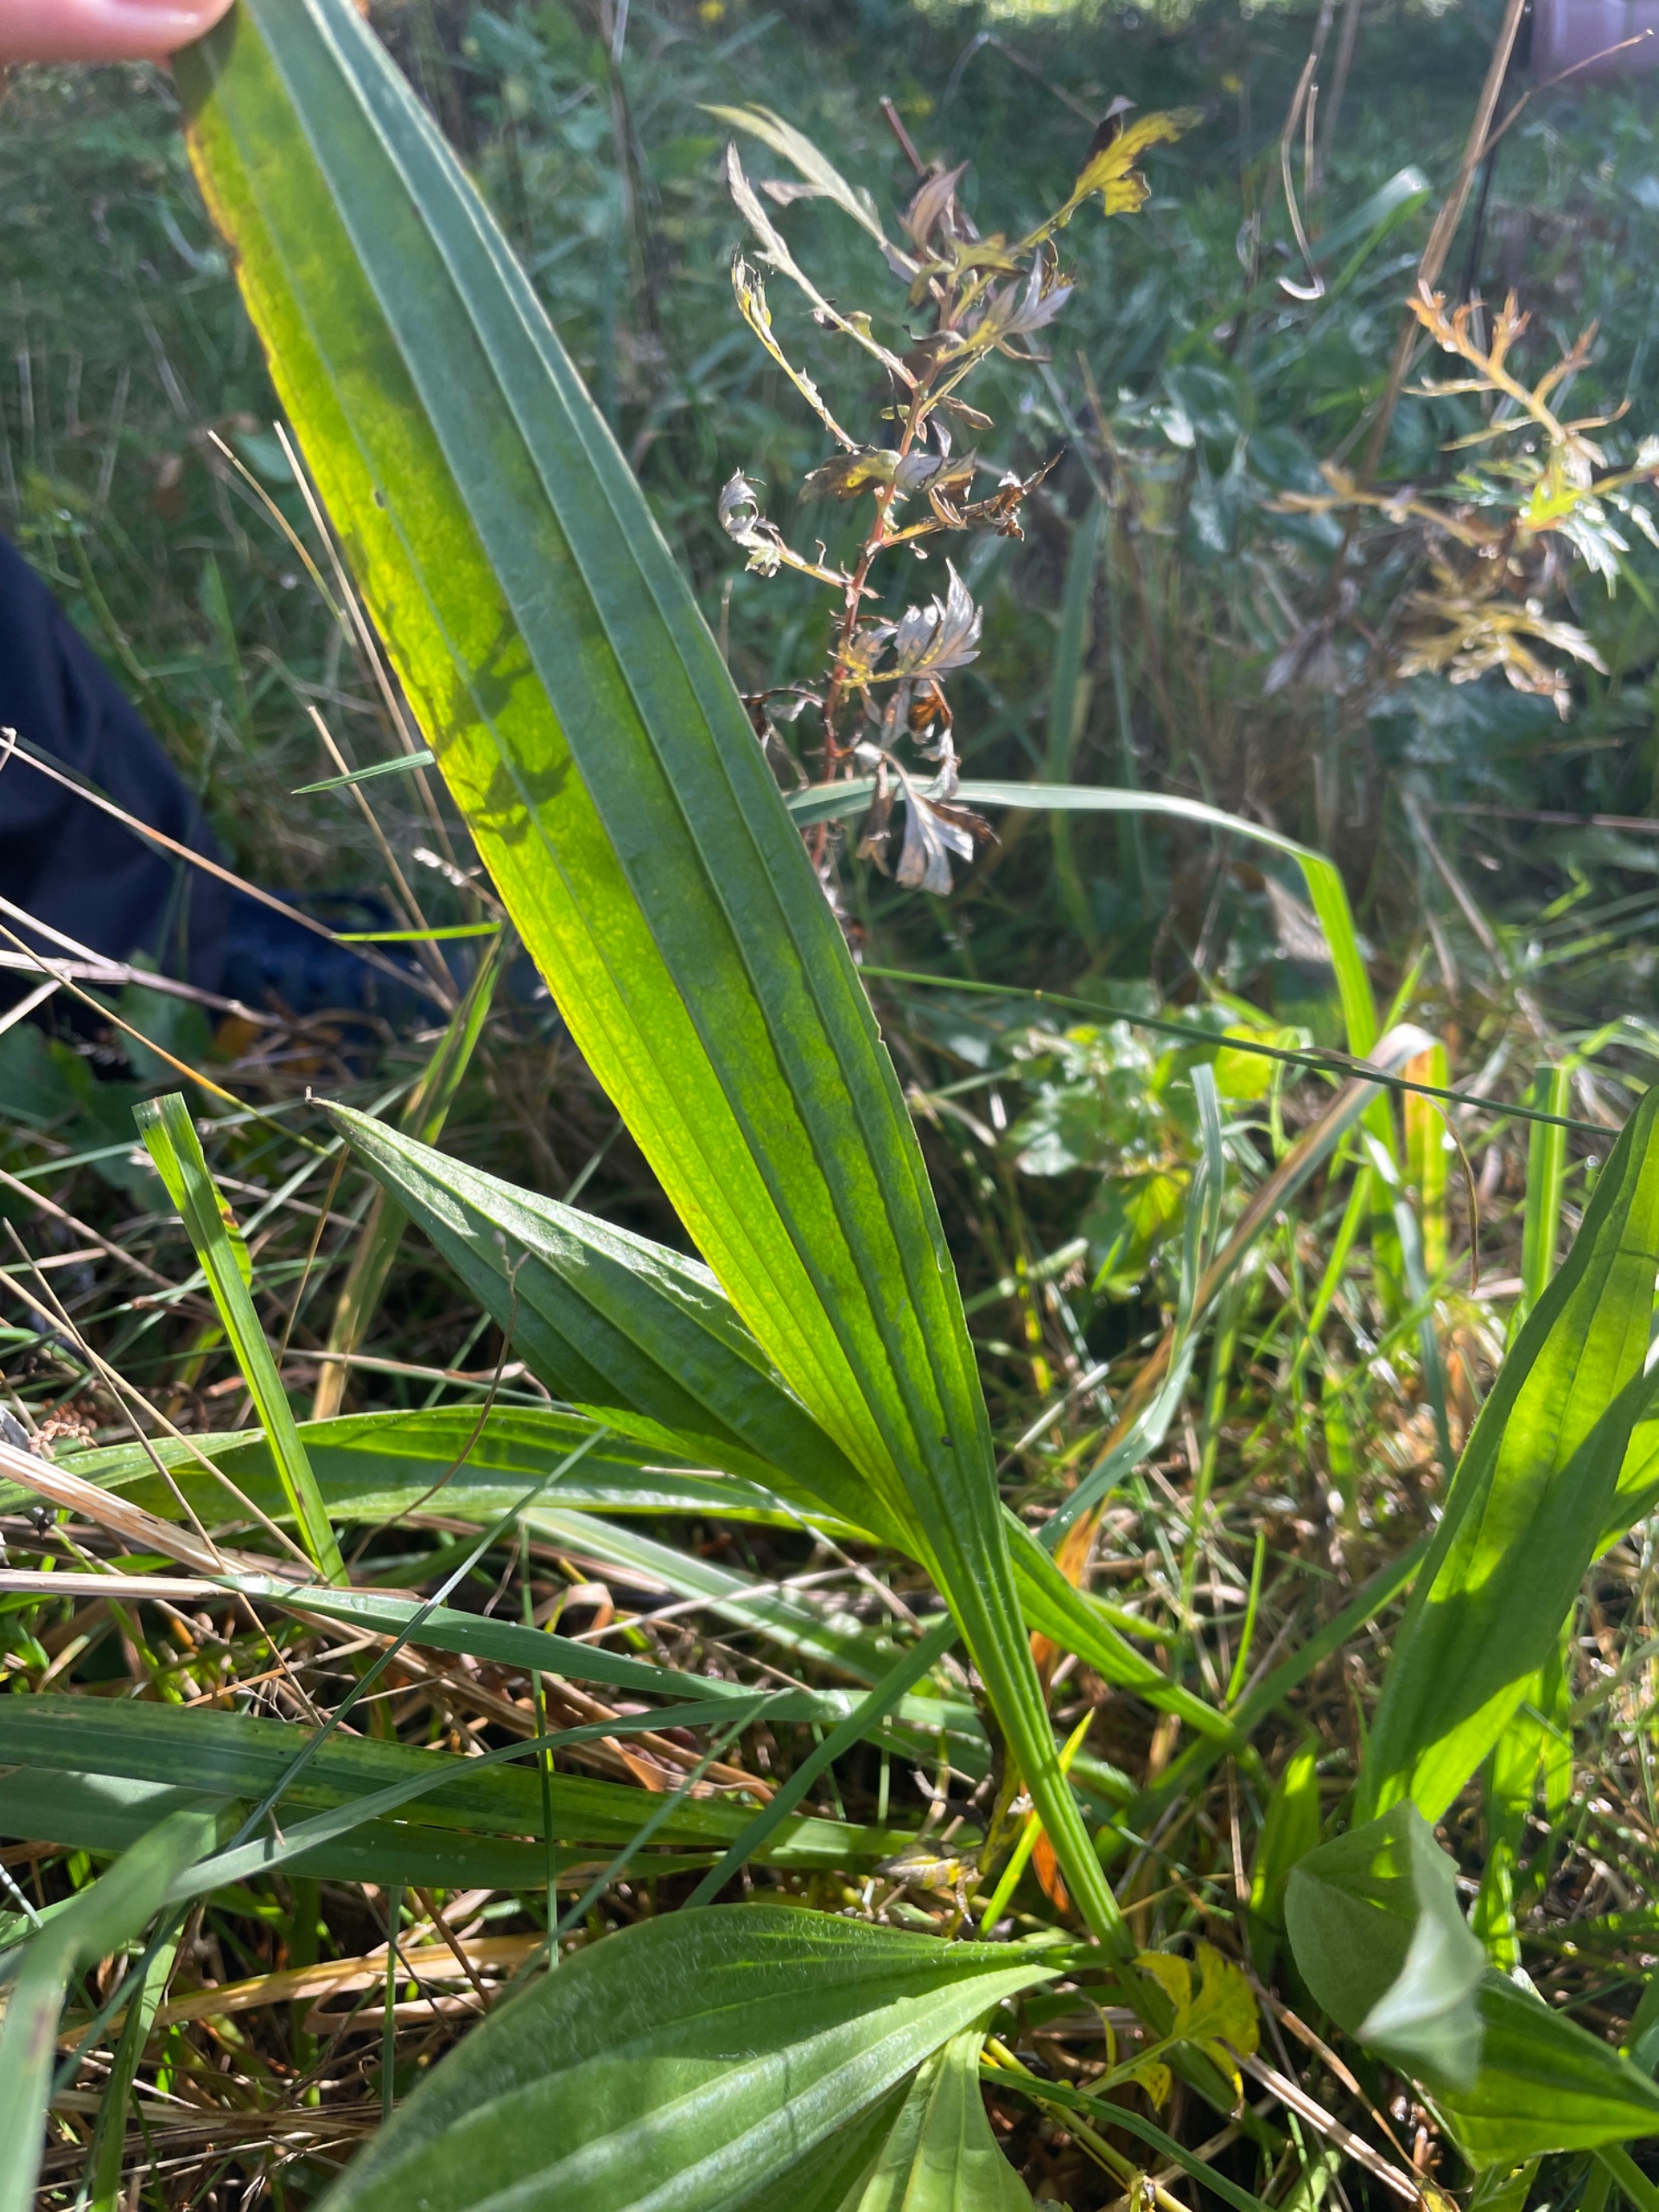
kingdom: Plantae
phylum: Tracheophyta
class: Magnoliopsida
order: Lamiales
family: Plantaginaceae
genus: Plantago
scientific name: Plantago lanceolata
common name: Lancet-vejbred
